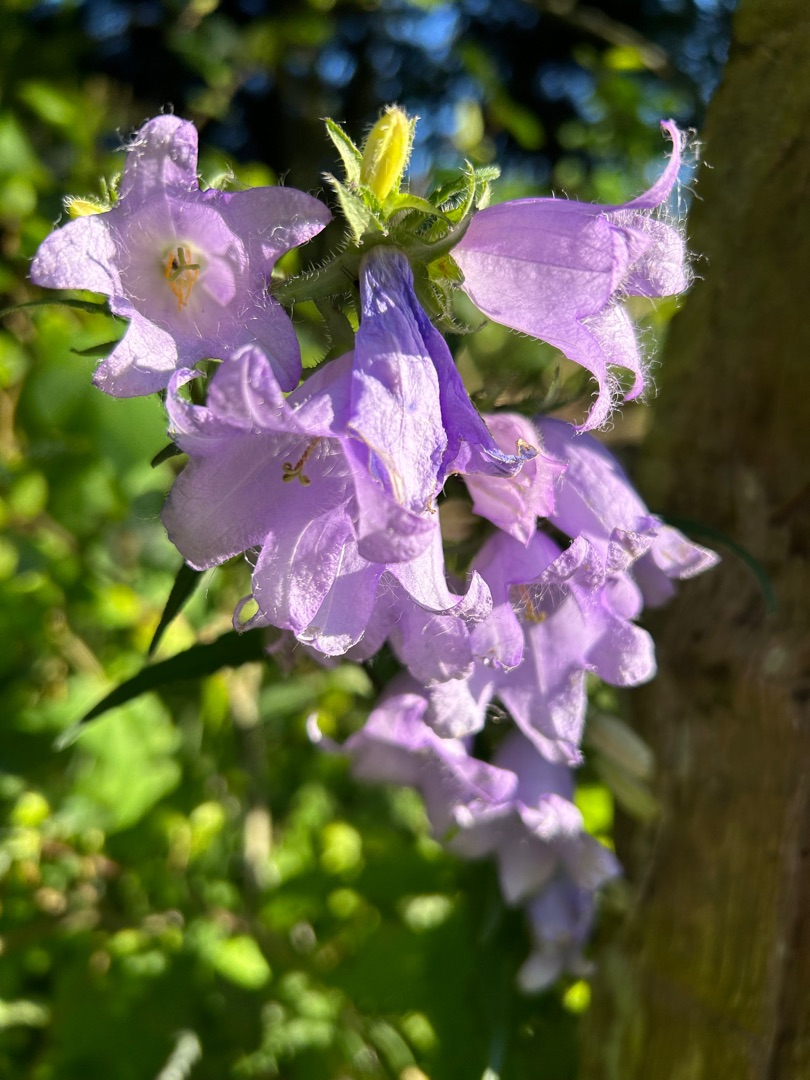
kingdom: Plantae
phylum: Tracheophyta
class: Magnoliopsida
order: Asterales
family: Campanulaceae
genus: Campanula
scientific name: Campanula trachelium
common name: Nælde-klokke
